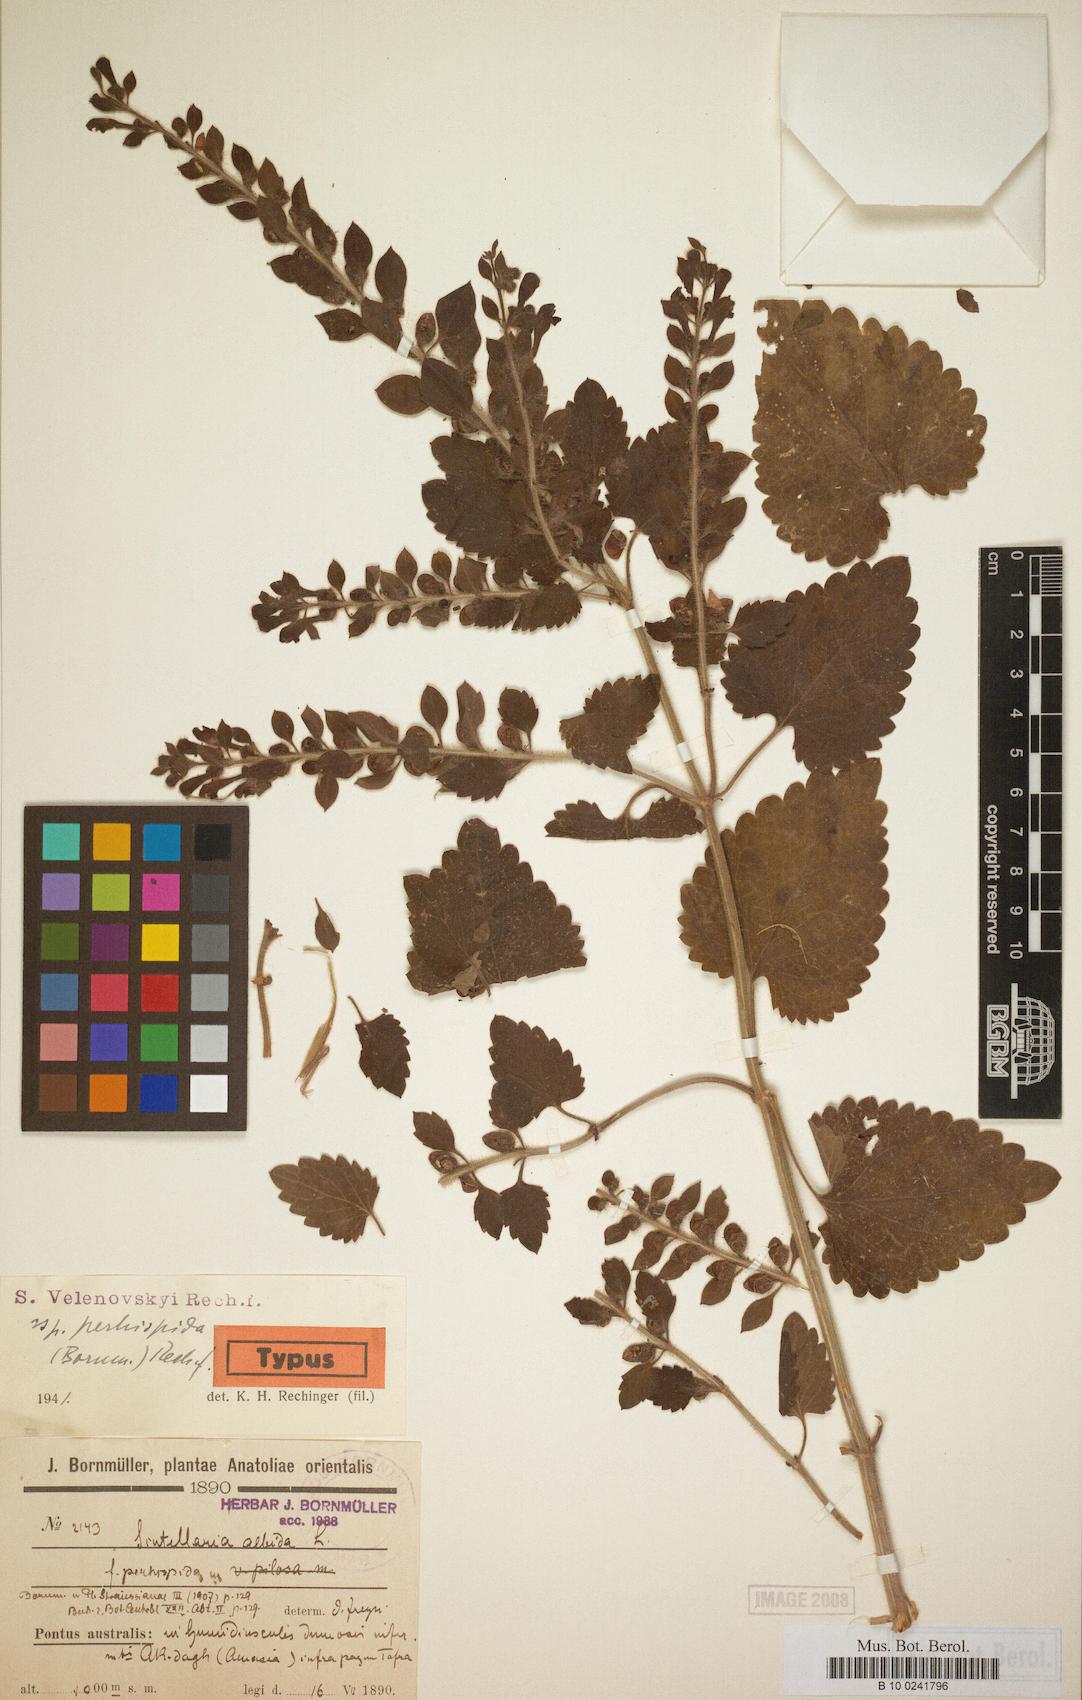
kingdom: Plantae
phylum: Tracheophyta
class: Magnoliopsida
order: Lamiales
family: Lamiaceae
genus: Scutellaria
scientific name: Scutellaria albida
